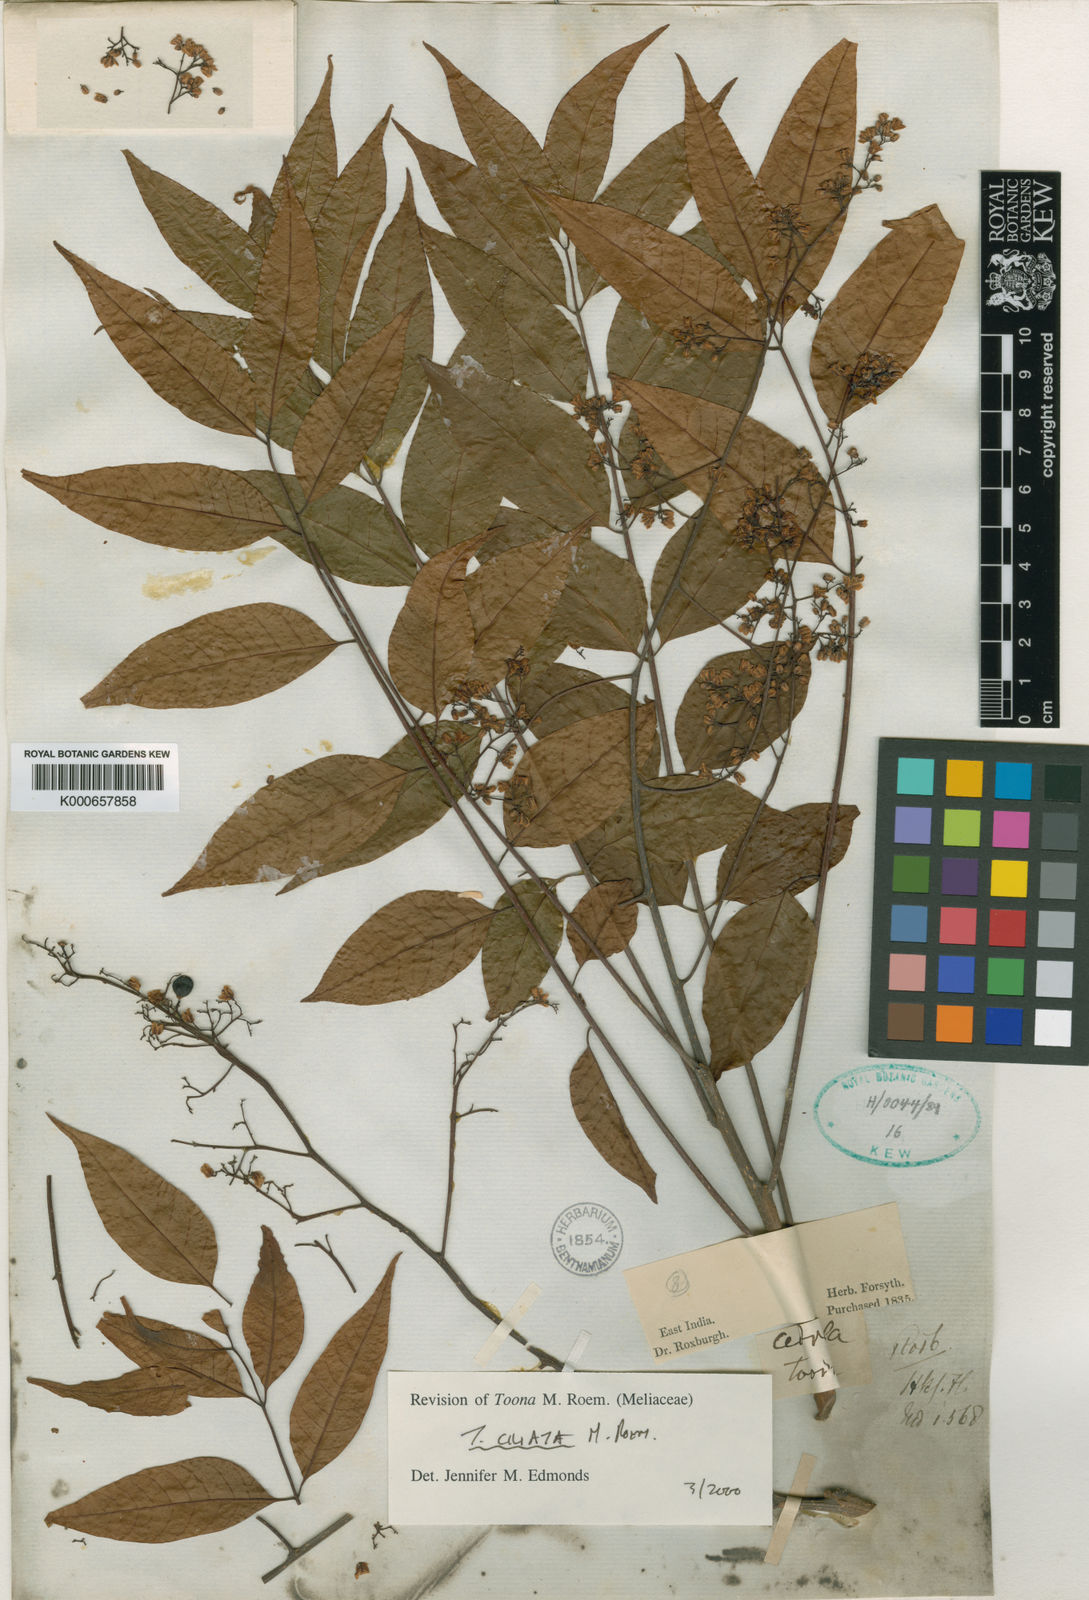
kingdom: Plantae
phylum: Tracheophyta
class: Magnoliopsida
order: Sapindales
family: Meliaceae
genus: Toona
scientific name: Toona ciliata
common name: Australian redcedar
